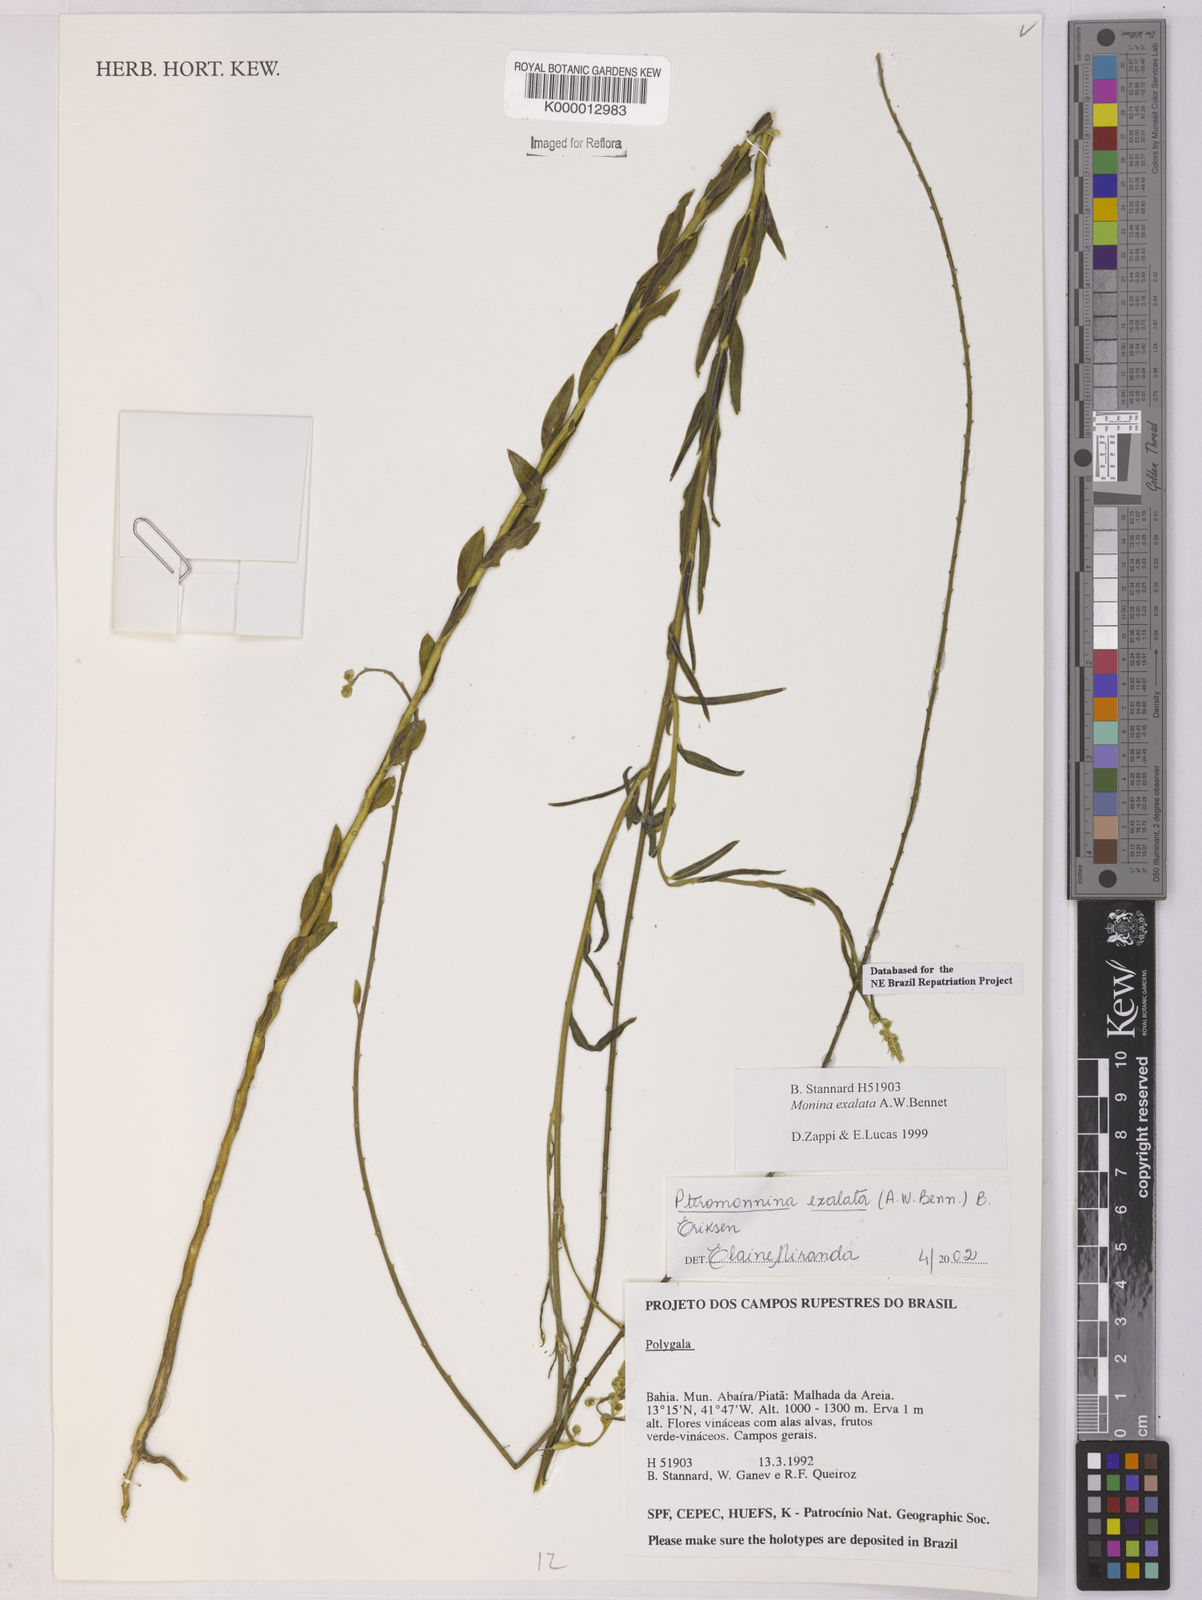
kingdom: Plantae
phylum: Tracheophyta
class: Magnoliopsida
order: Fabales
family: Polygalaceae
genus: Monnina
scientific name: Monnina exalata
